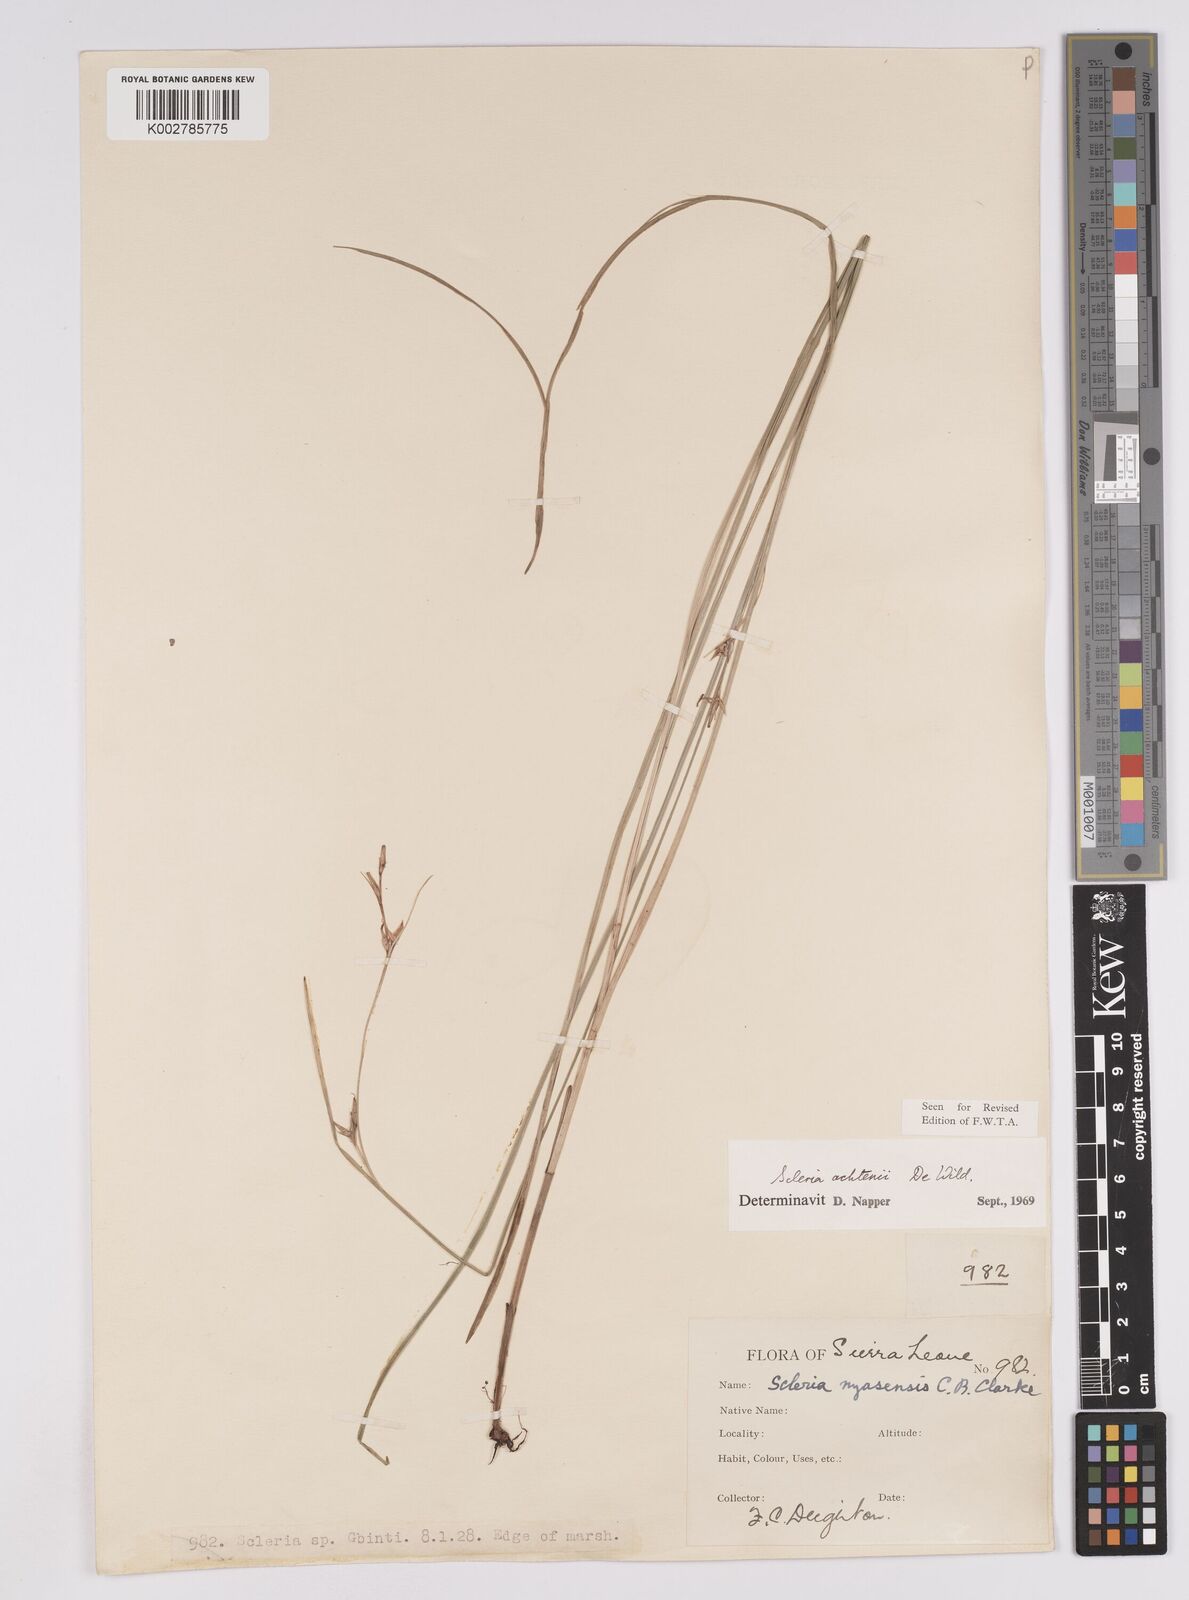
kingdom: Plantae
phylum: Tracheophyta
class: Liliopsida
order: Poales
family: Cyperaceae
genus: Scleria
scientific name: Scleria achtenii
